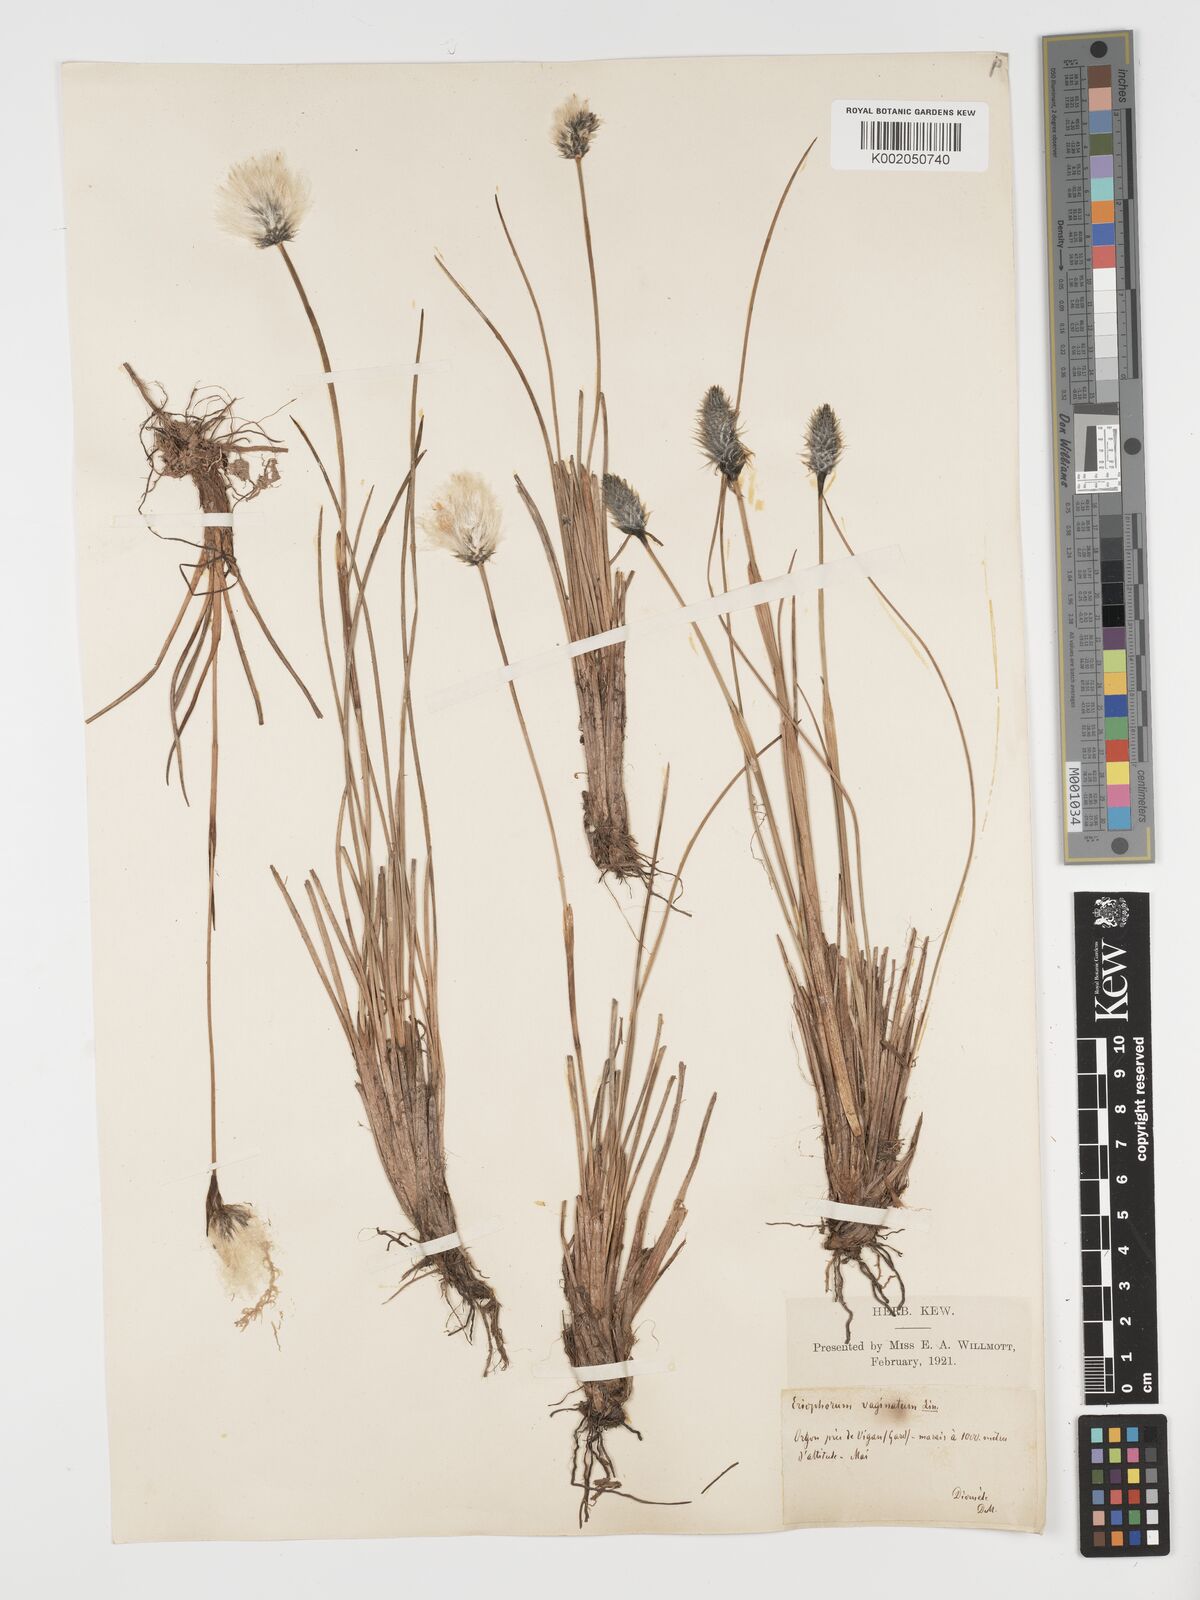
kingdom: Plantae
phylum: Tracheophyta
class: Liliopsida
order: Poales
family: Cyperaceae
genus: Eriophorum
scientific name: Eriophorum vaginatum
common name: Hare's-tail cottongrass
